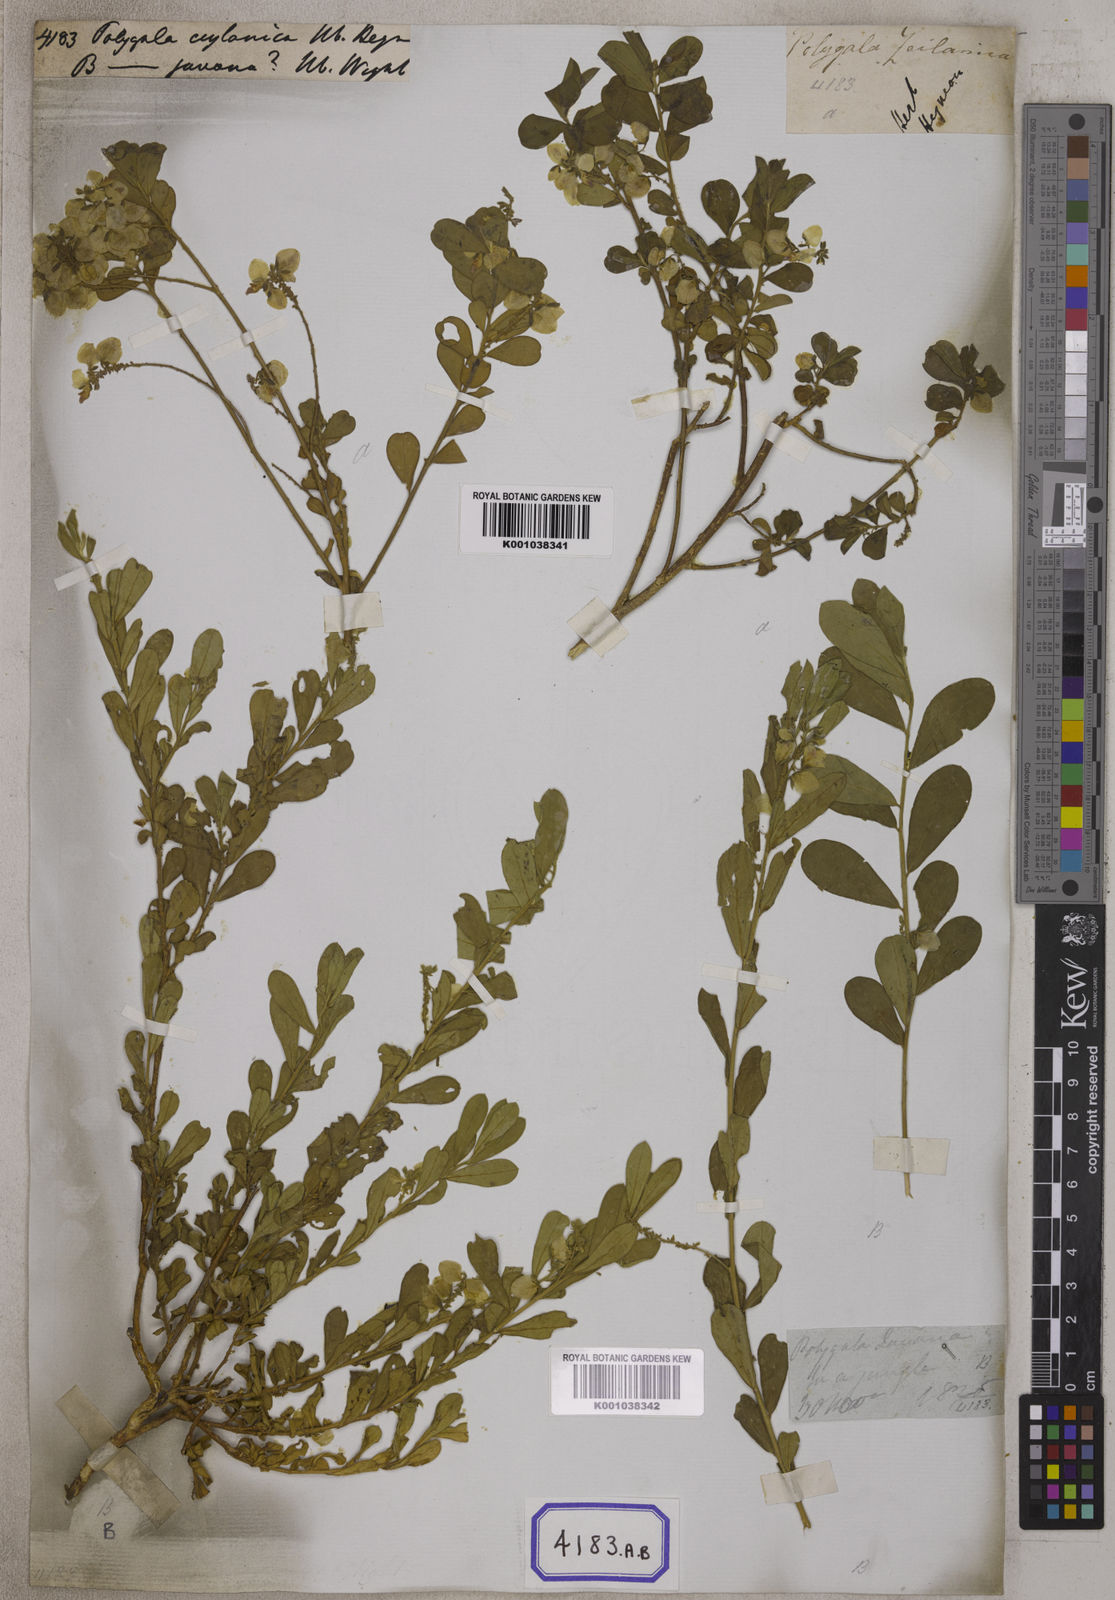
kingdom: Plantae
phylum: Tracheophyta
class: Magnoliopsida
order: Fabales
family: Polygalaceae
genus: Polygala
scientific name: Polygala javana
